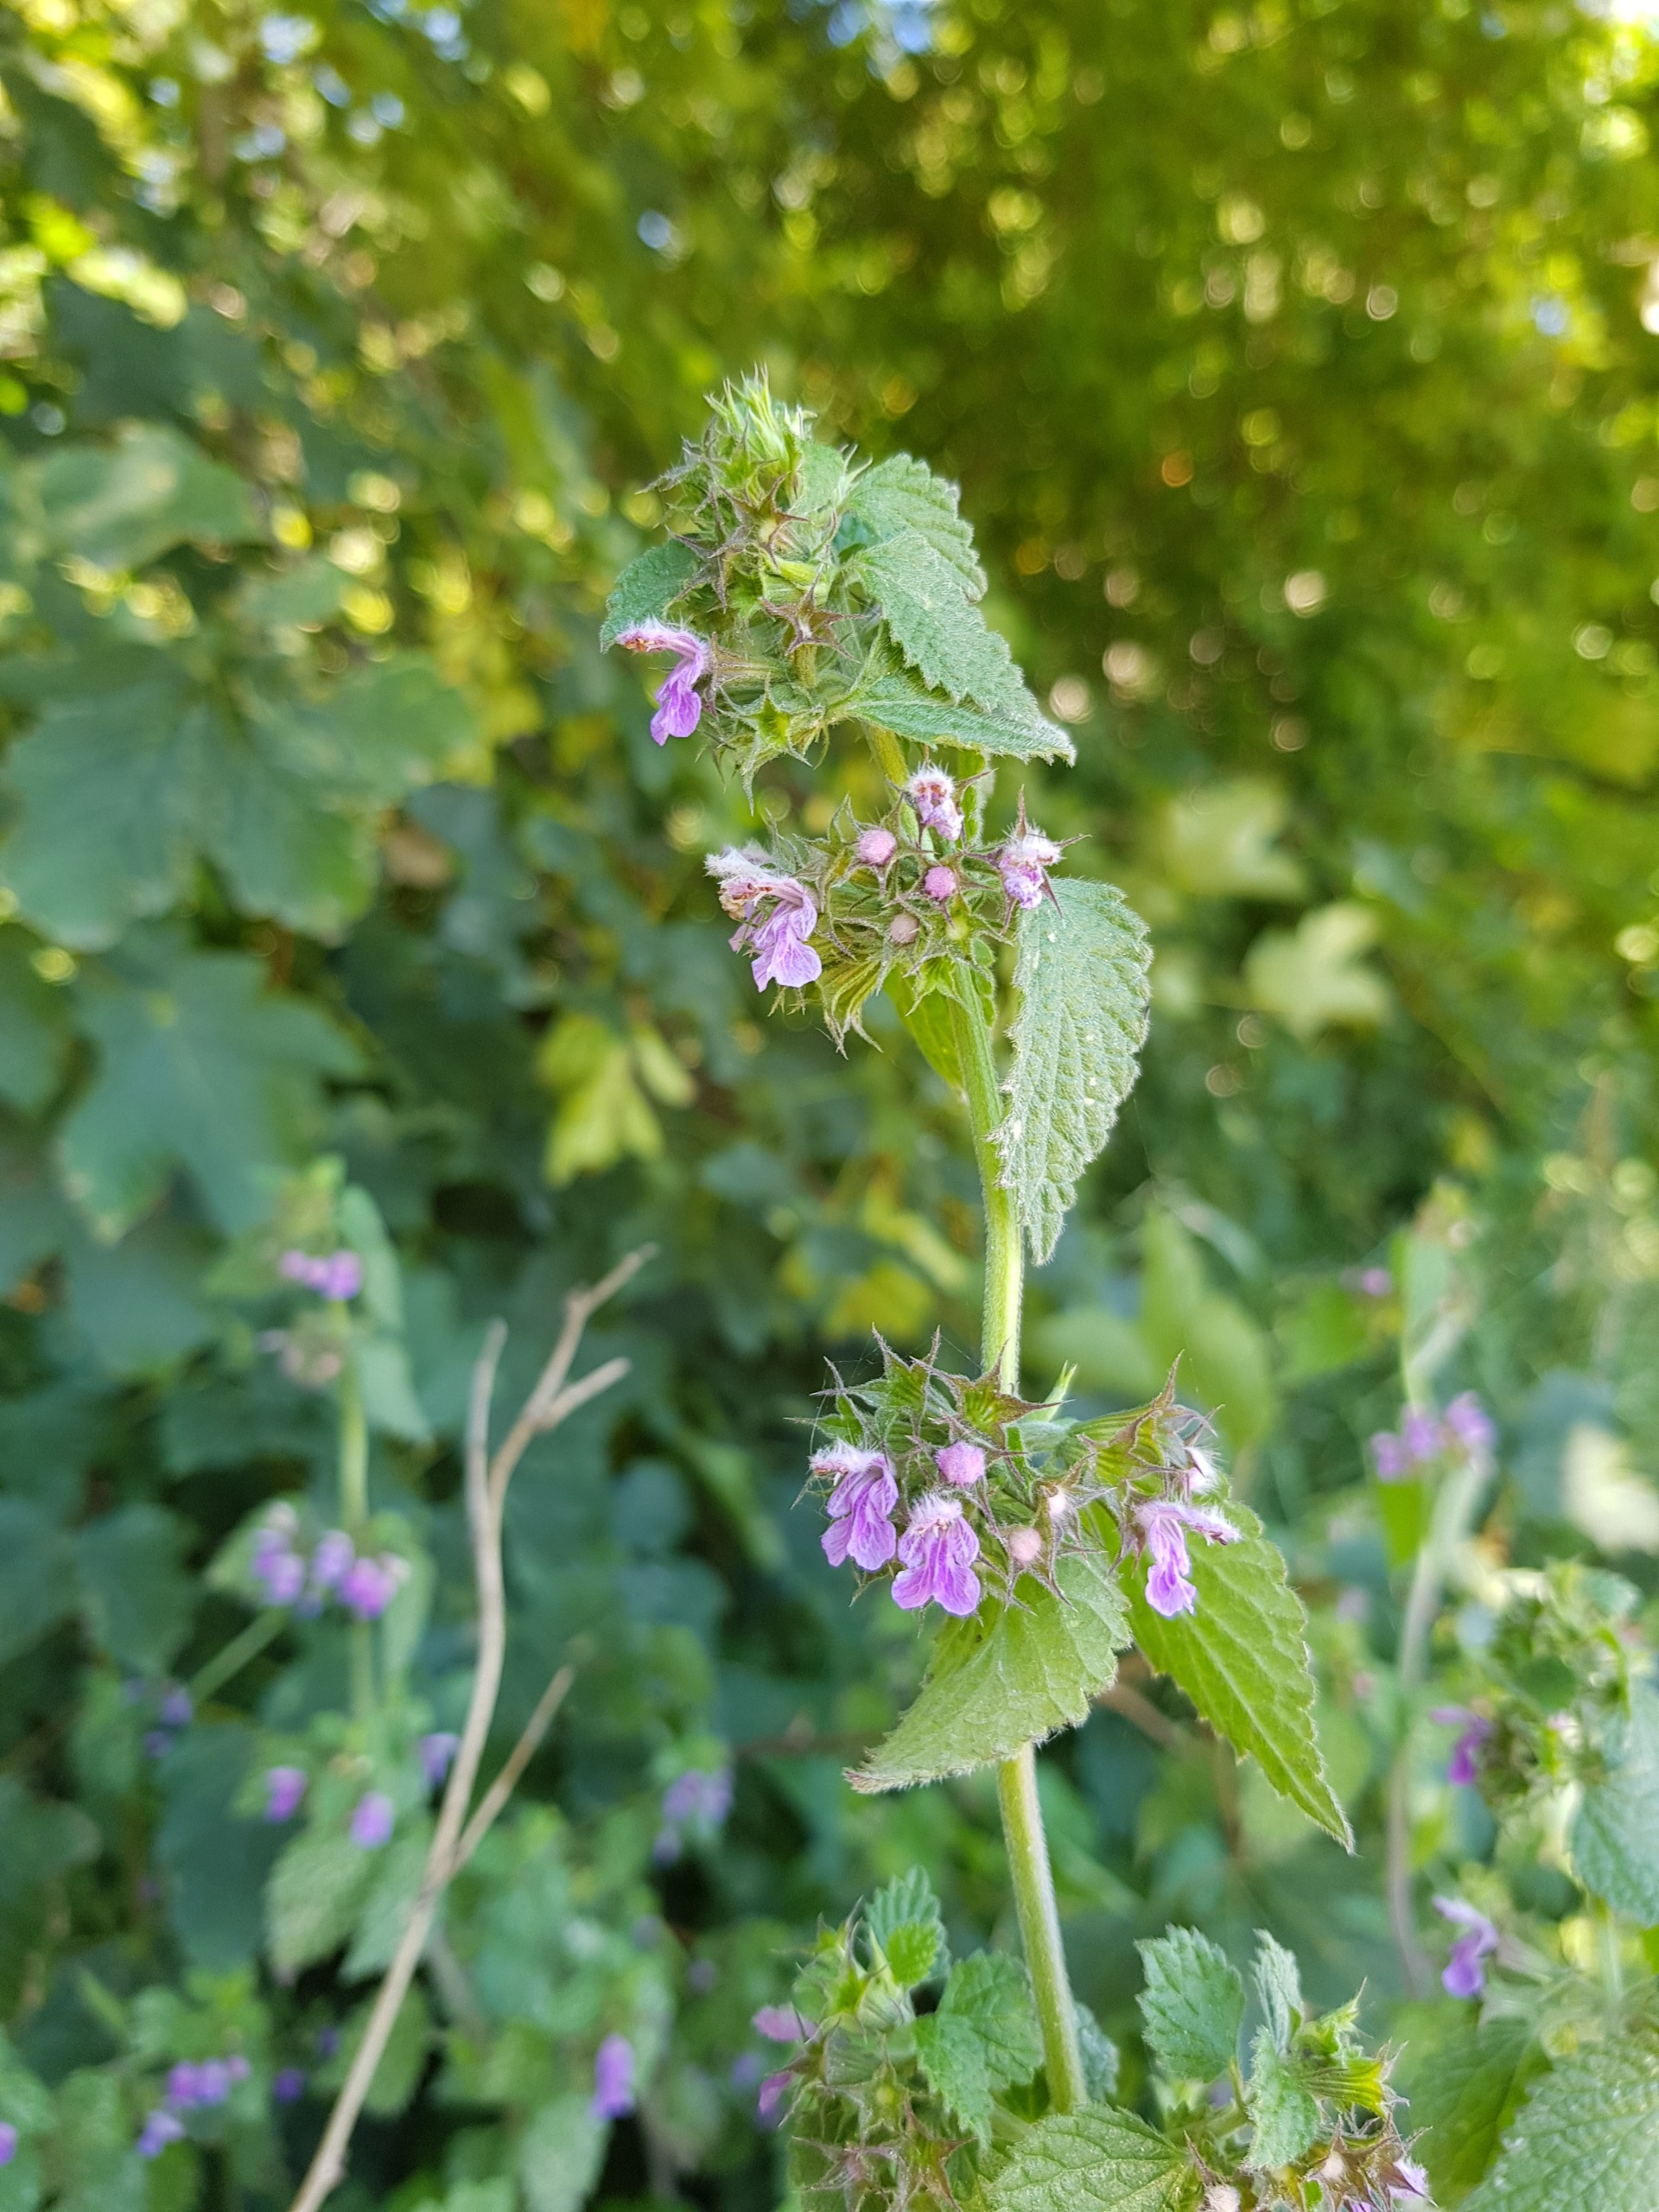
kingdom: Plantae
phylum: Tracheophyta
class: Magnoliopsida
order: Lamiales
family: Lamiaceae
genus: Ballota
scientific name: Ballota nigra
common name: Tandbæger
